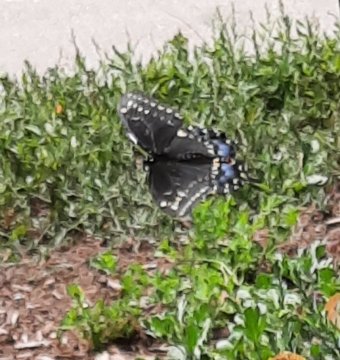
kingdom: Animalia
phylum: Arthropoda
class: Insecta
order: Lepidoptera
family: Papilionidae
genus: Papilio
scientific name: Papilio polyxenes
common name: Black Swallowtail
